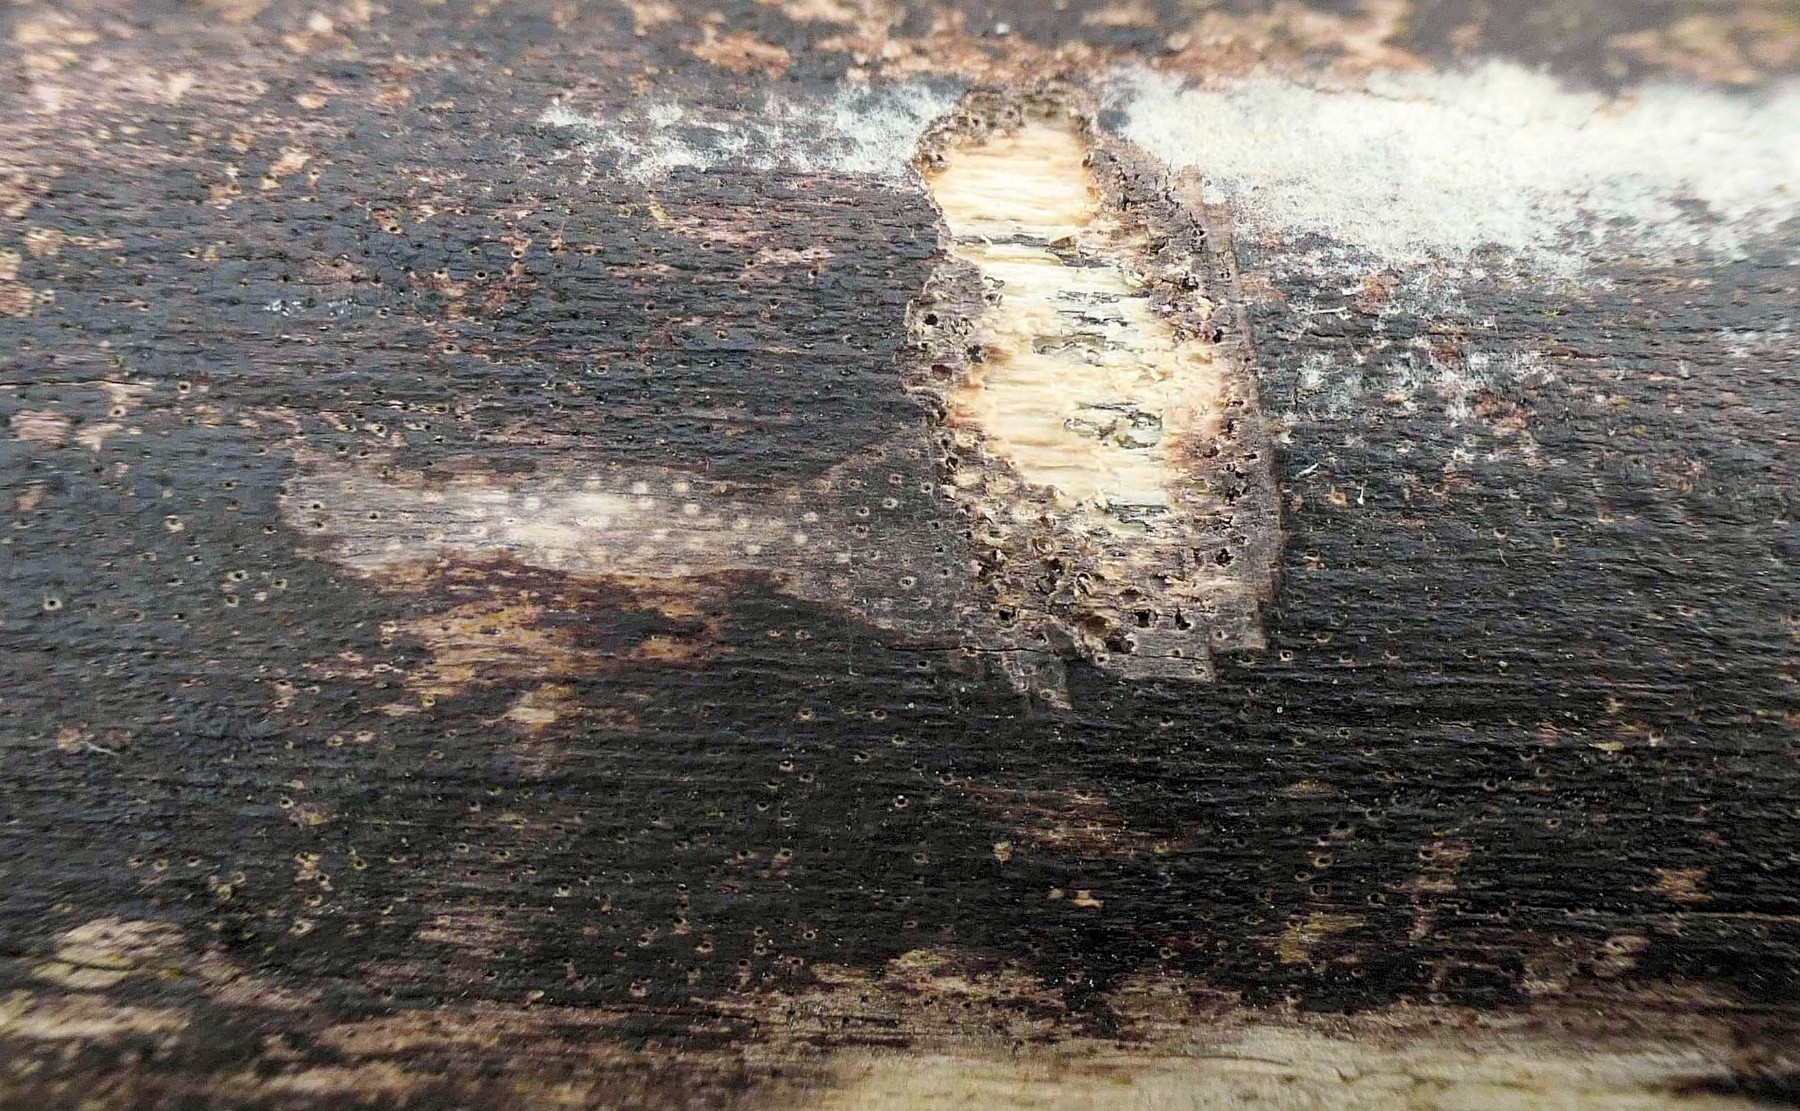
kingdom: Fungi
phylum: Ascomycota
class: Sordariomycetes
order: Xylariales
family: Diatrypaceae
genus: Eutypa
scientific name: Eutypa maura
